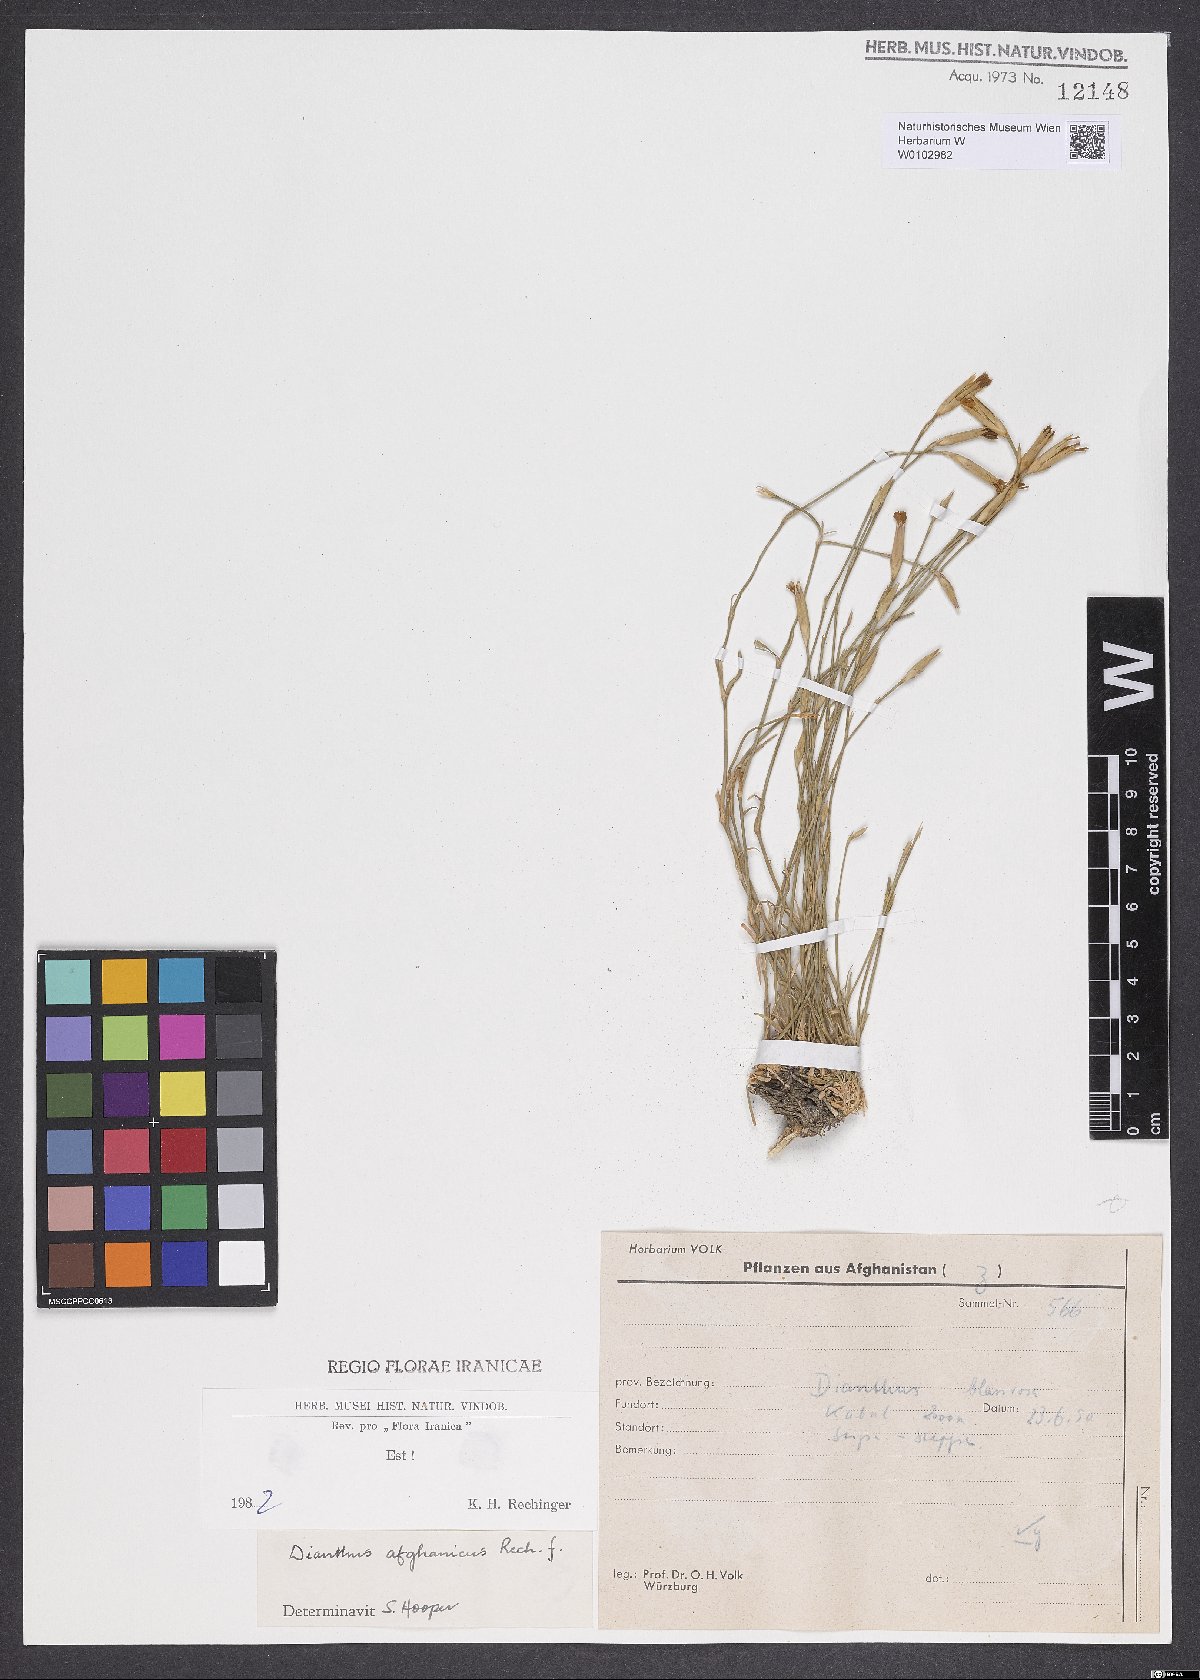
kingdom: Plantae
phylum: Tracheophyta
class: Magnoliopsida
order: Caryophyllales
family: Caryophyllaceae
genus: Dianthus
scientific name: Dianthus afghanicus
